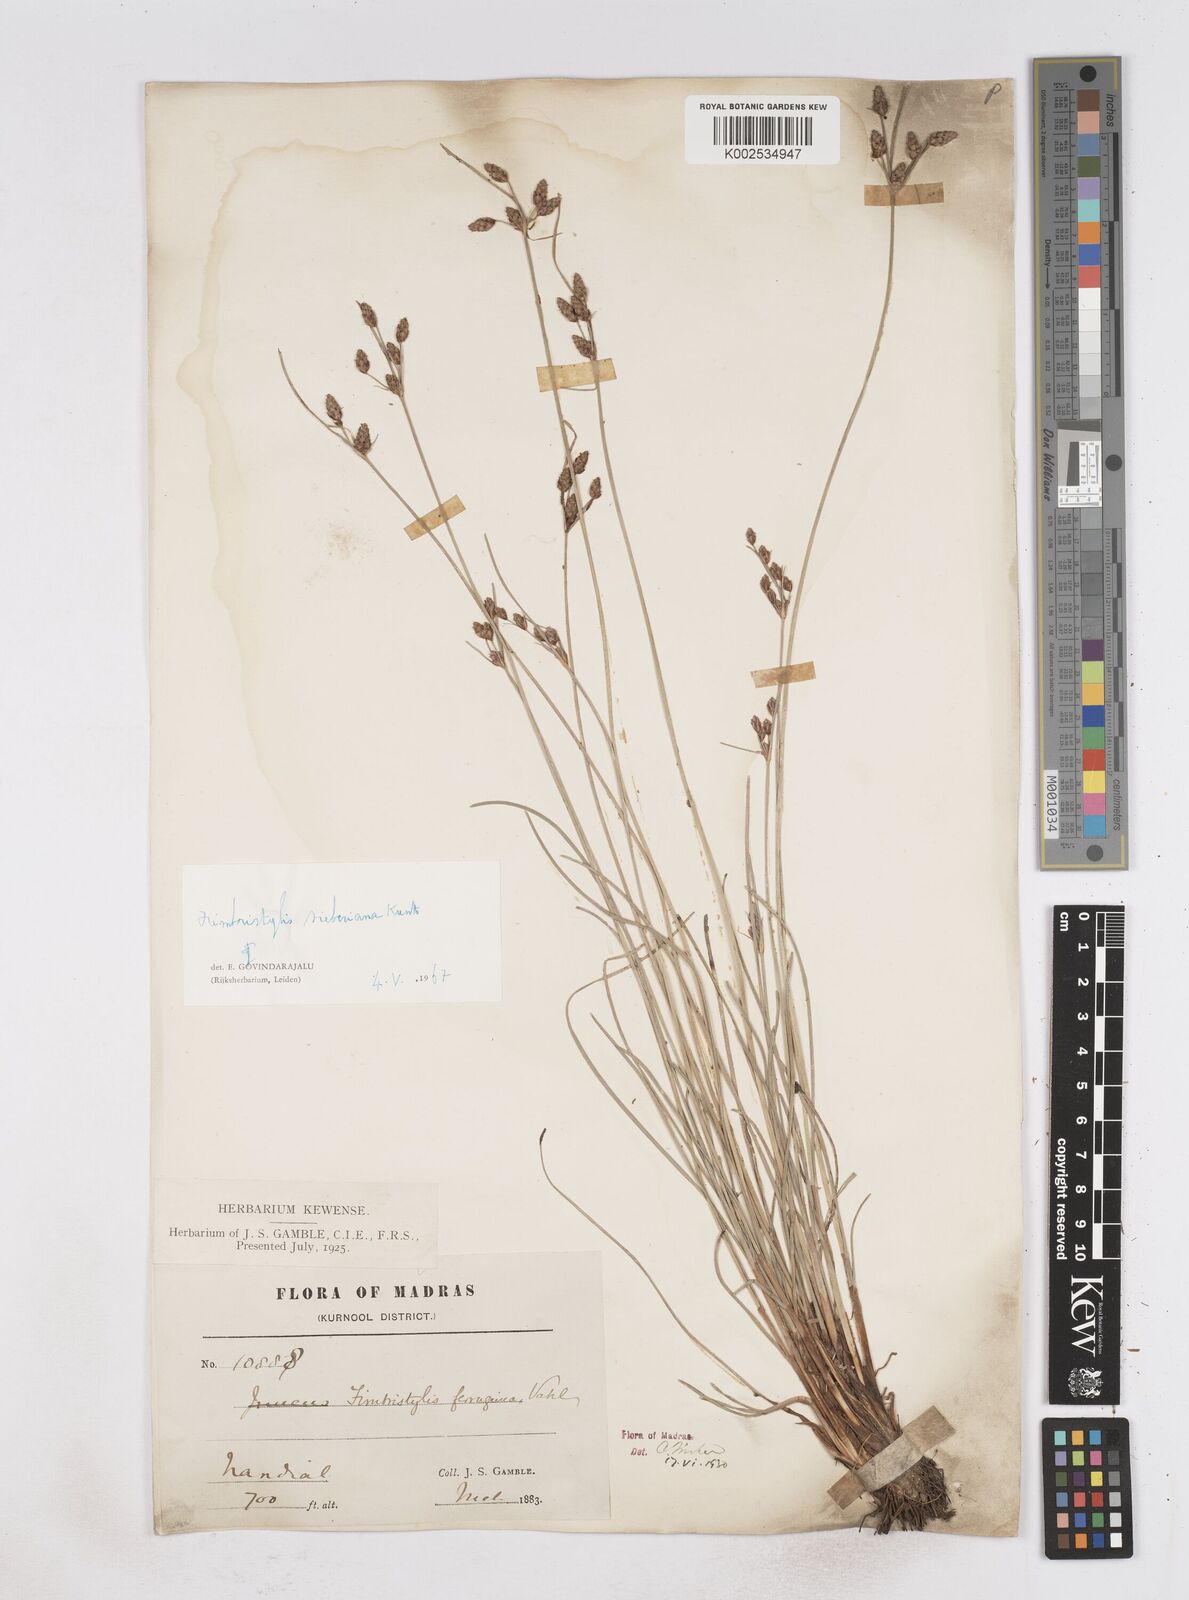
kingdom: Plantae
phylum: Tracheophyta
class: Liliopsida
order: Poales
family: Cyperaceae
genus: Fimbristylis
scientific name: Fimbristylis ferruginea
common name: West indian fimbry
